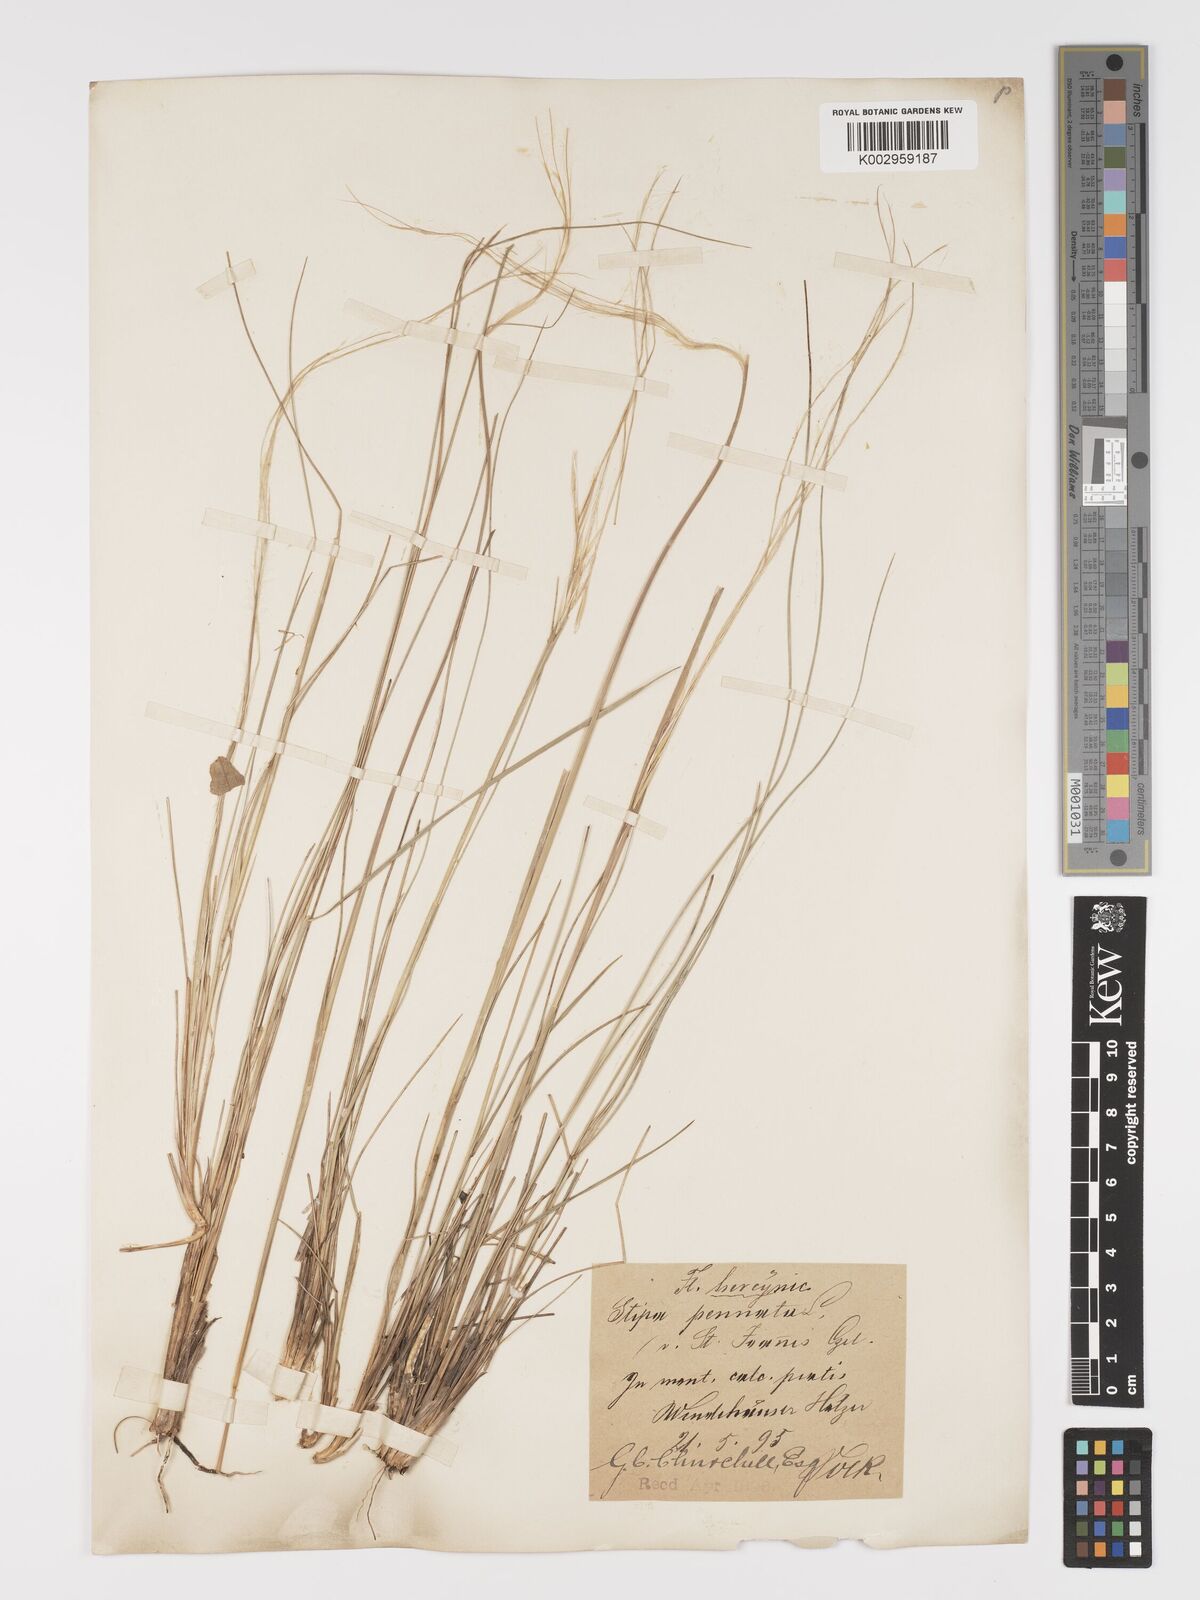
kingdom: Plantae
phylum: Tracheophyta
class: Liliopsida
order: Poales
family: Poaceae
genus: Stipa
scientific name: Stipa pennata
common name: European feather grass
